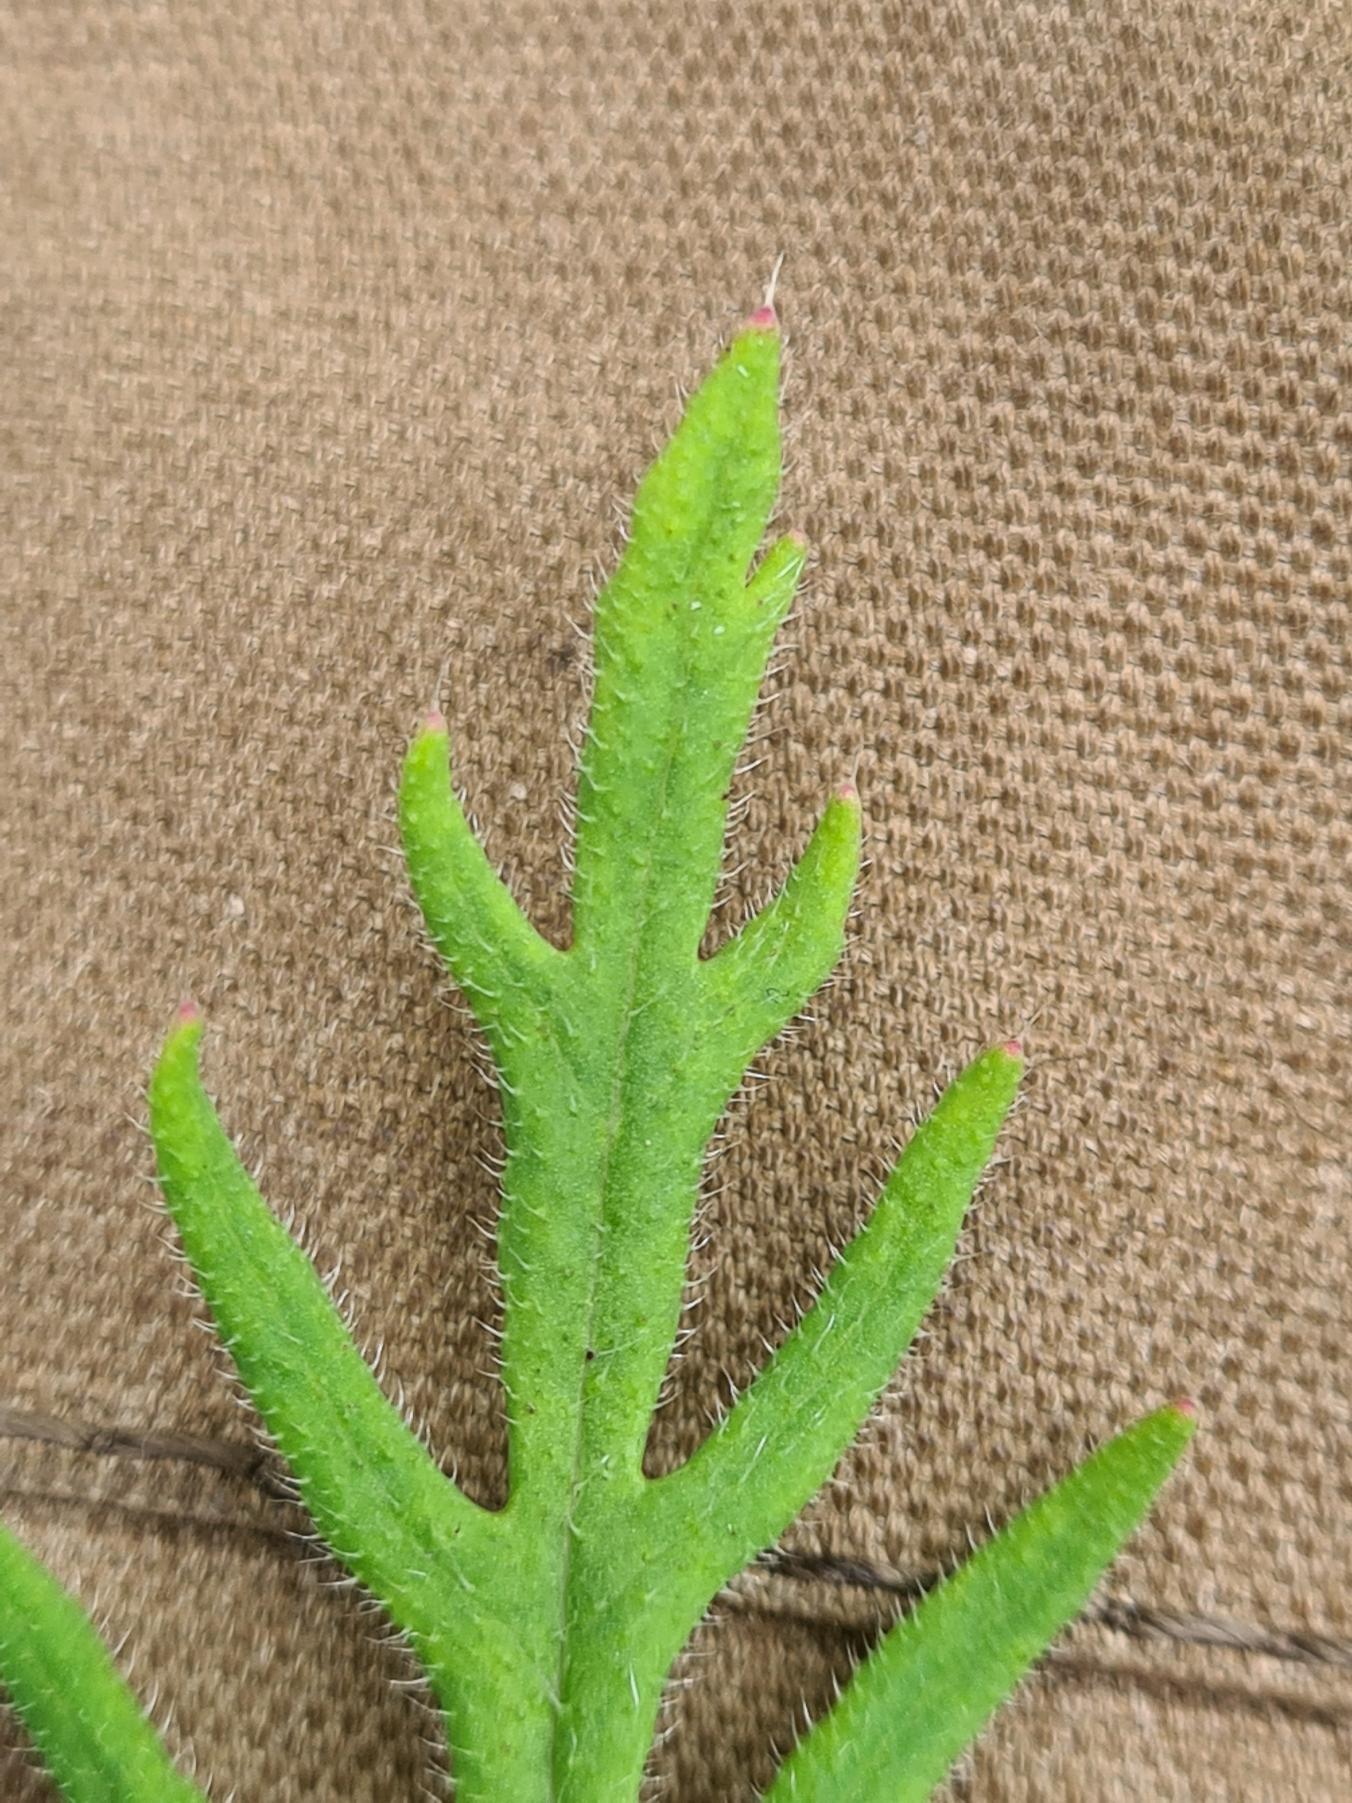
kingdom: Plantae
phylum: Tracheophyta
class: Magnoliopsida
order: Ranunculales
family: Papaveraceae
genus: Papaver
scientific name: Papaver dubium
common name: Gærde-valmue
